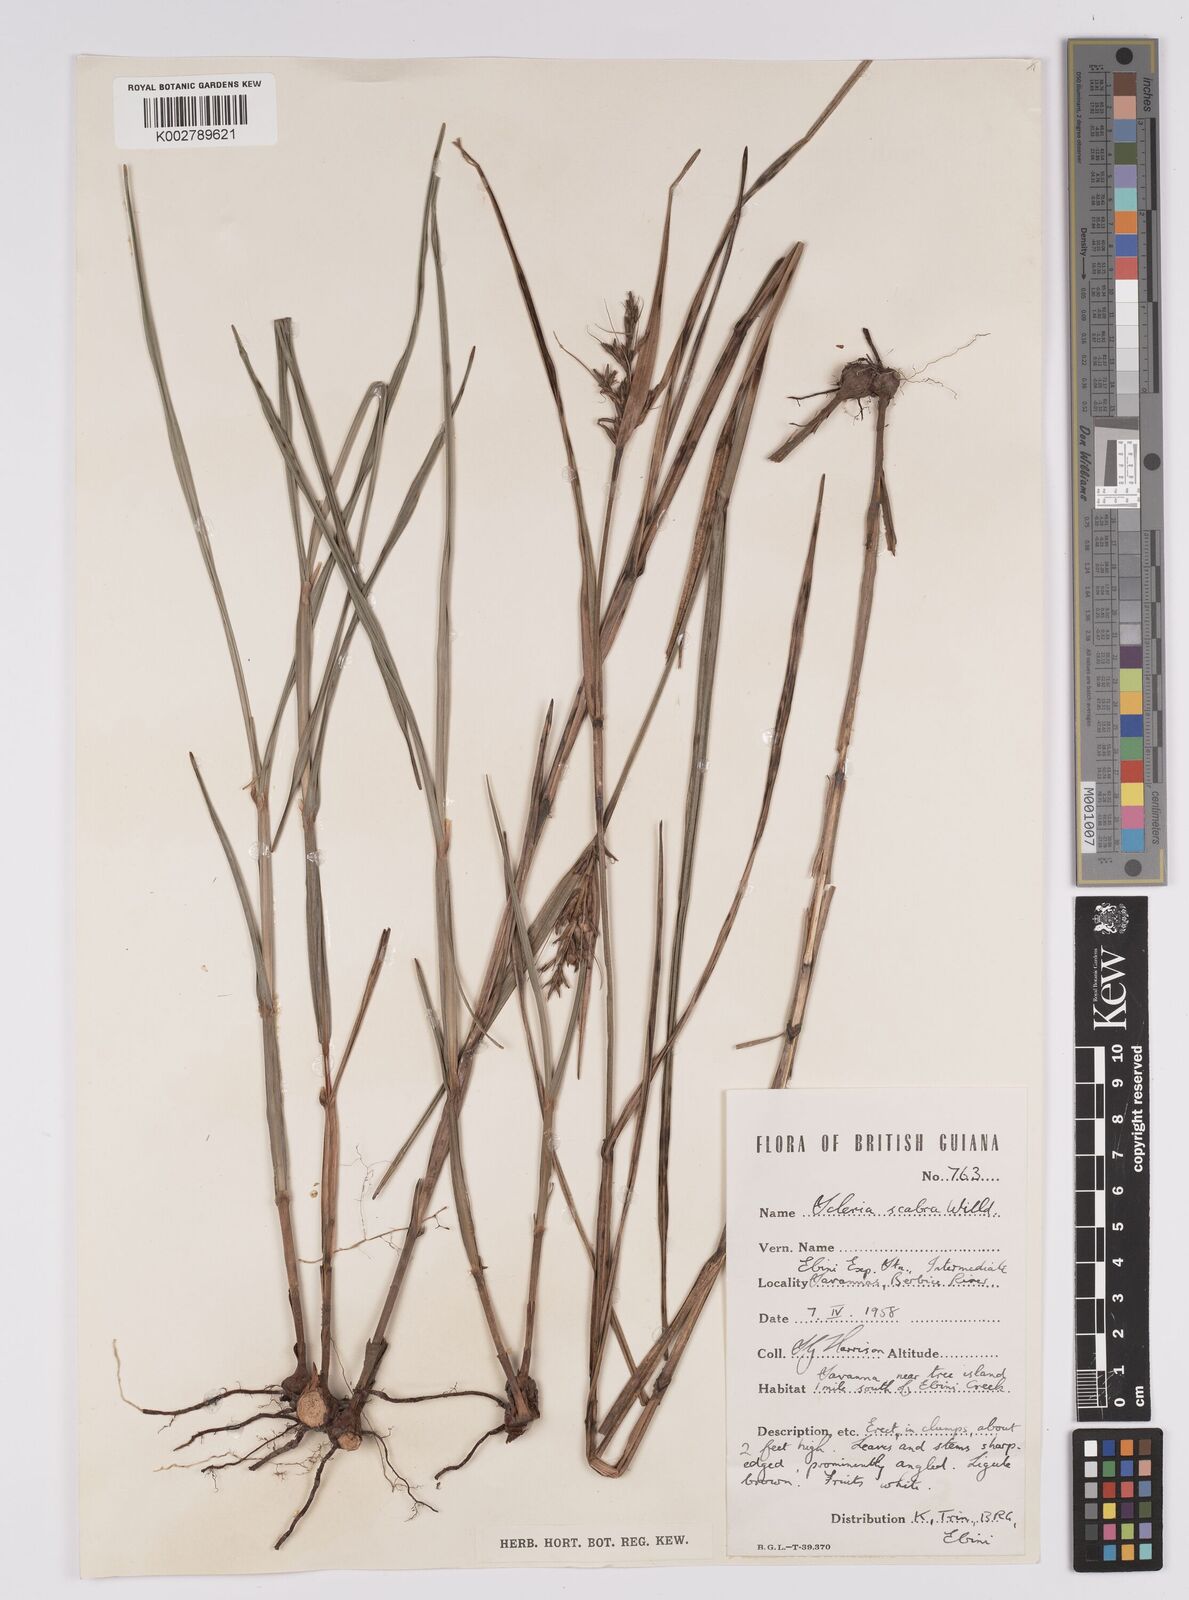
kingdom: Plantae
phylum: Tracheophyta
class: Liliopsida
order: Poales
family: Cyperaceae
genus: Scleria
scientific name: Scleria scabra
